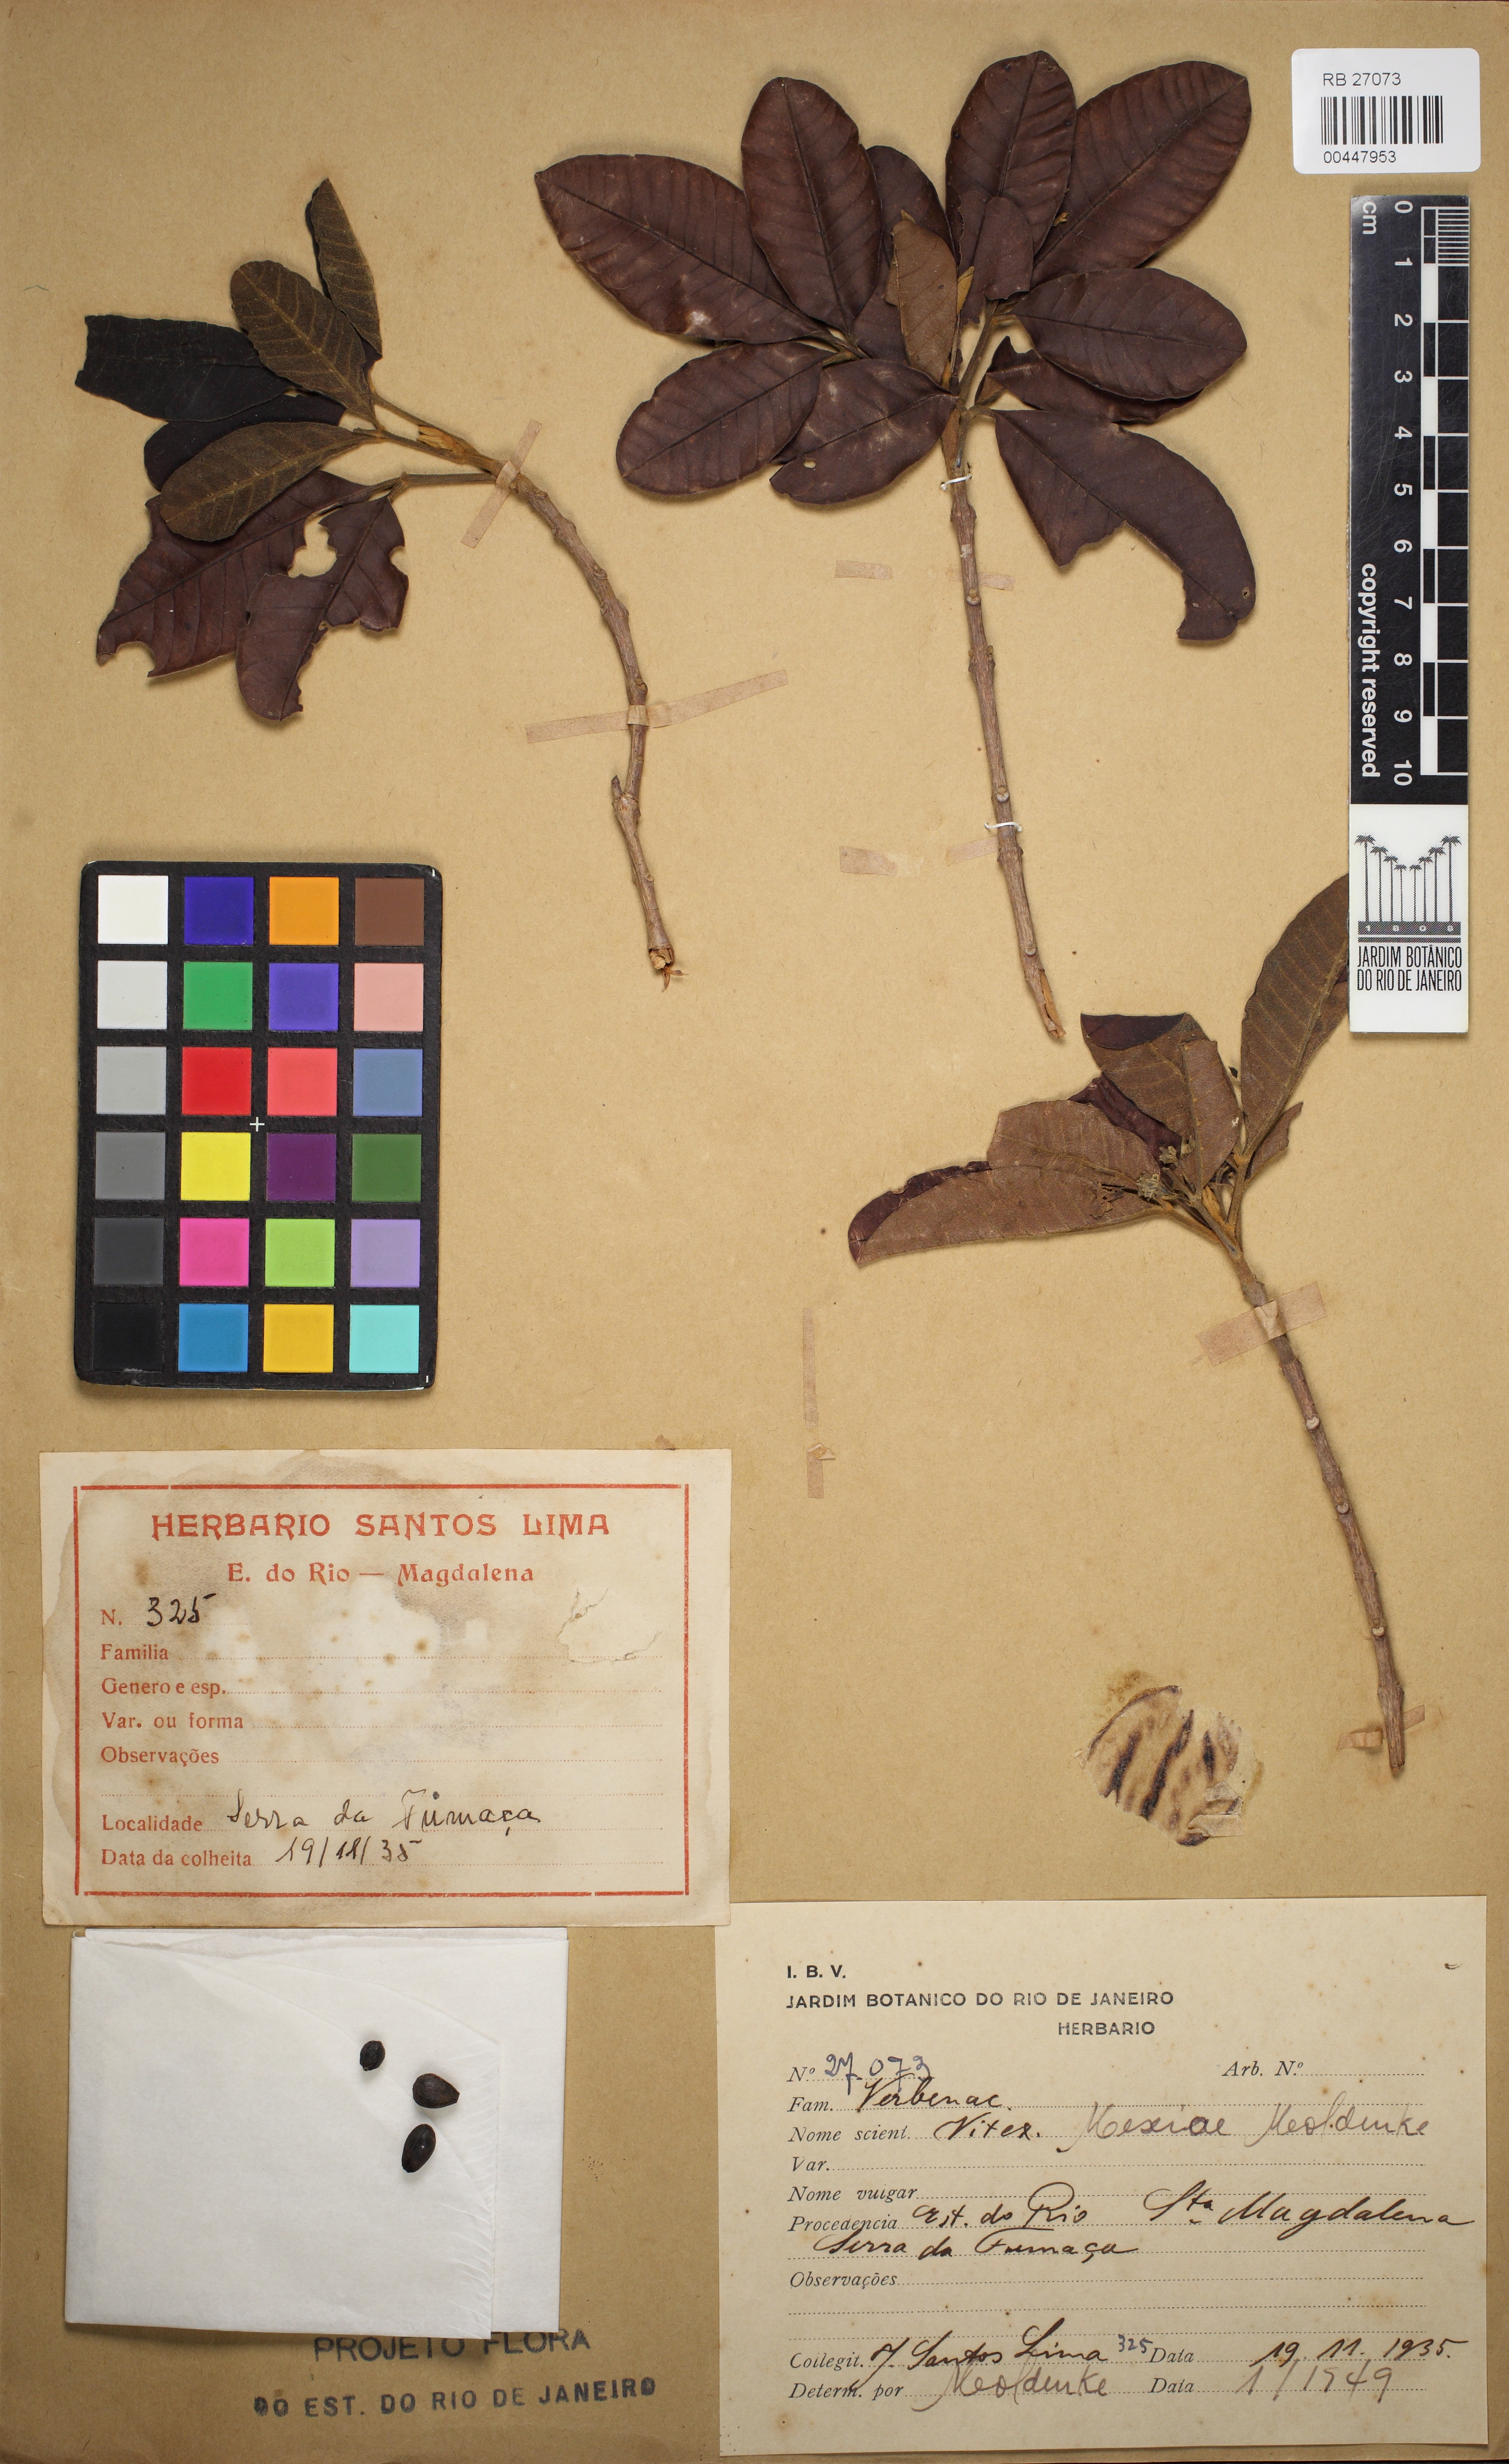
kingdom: Plantae
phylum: Tracheophyta
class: Magnoliopsida
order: Lamiales
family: Lamiaceae
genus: Vitex
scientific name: Vitex sellowiana
